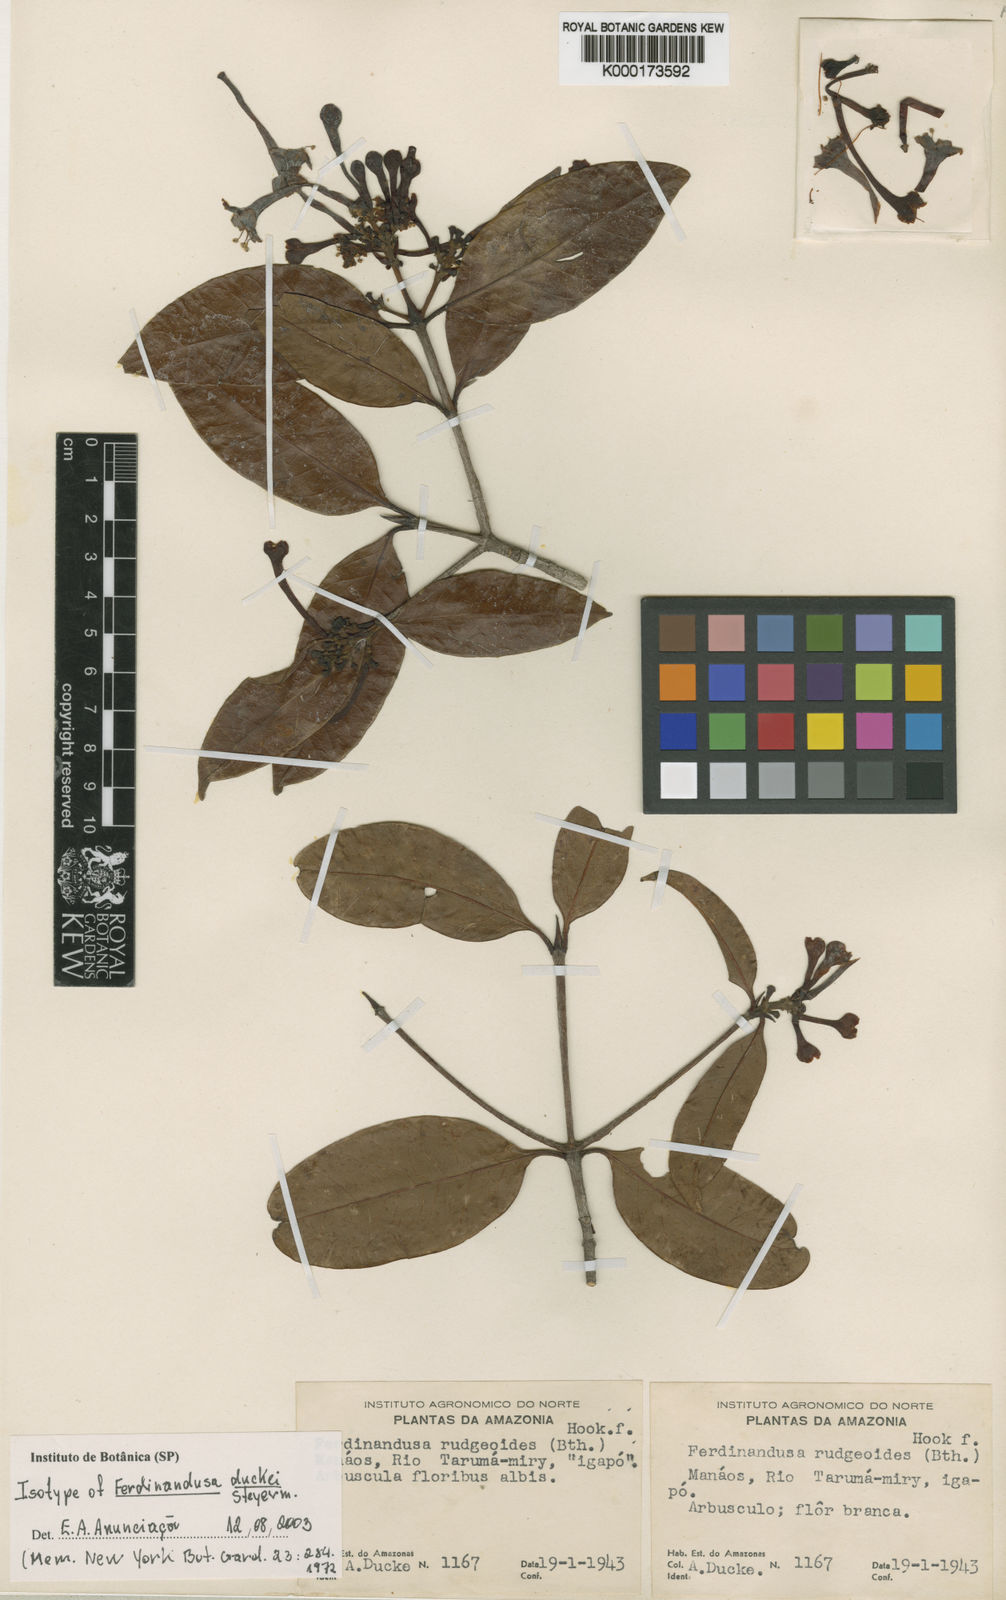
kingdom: Plantae
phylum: Tracheophyta
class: Magnoliopsida
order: Gentianales
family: Rubiaceae
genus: Ferdinandusa
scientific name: Ferdinandusa duckei
